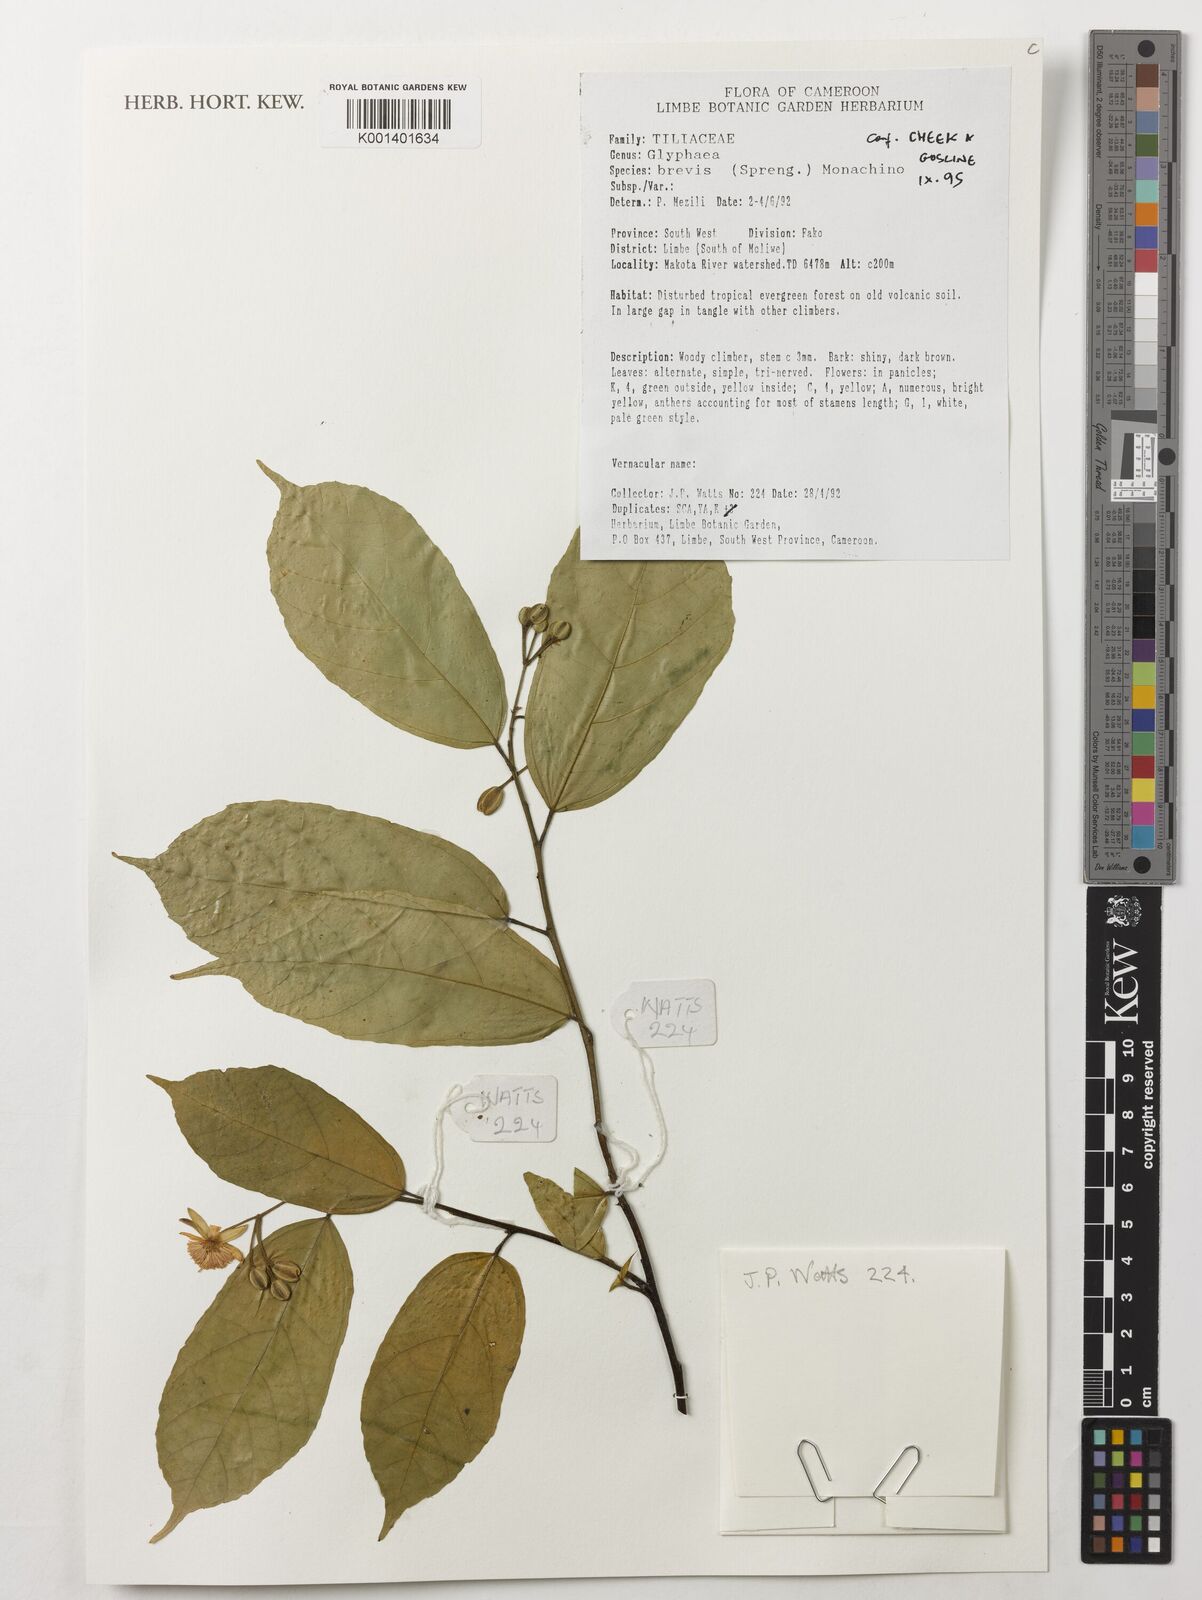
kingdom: Plantae
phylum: Tracheophyta
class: Magnoliopsida
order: Malvales
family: Malvaceae
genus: Glyphaea
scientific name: Glyphaea brevis
